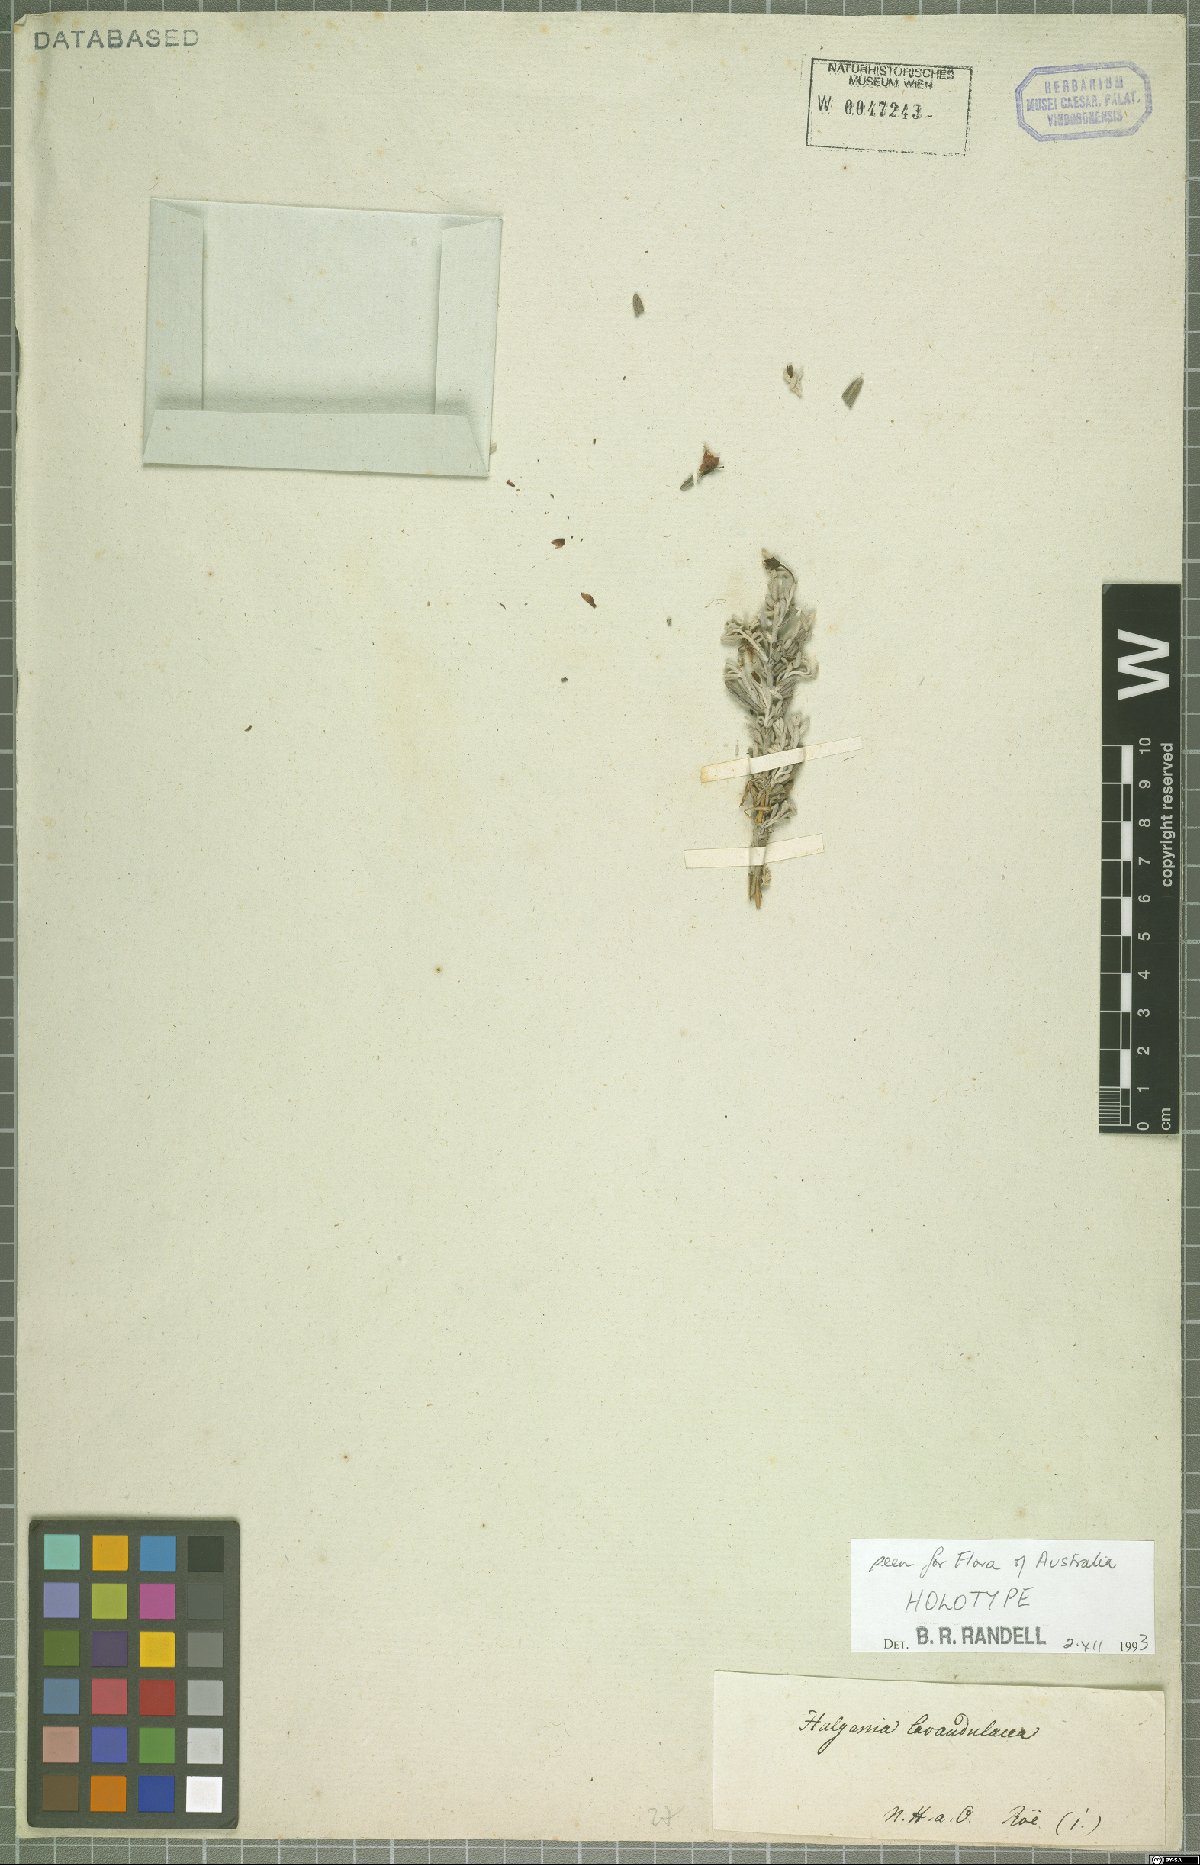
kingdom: Plantae
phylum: Tracheophyta
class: Magnoliopsida
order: Boraginales
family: Ehretiaceae
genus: Halgania
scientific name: Halgania lavandulacea
